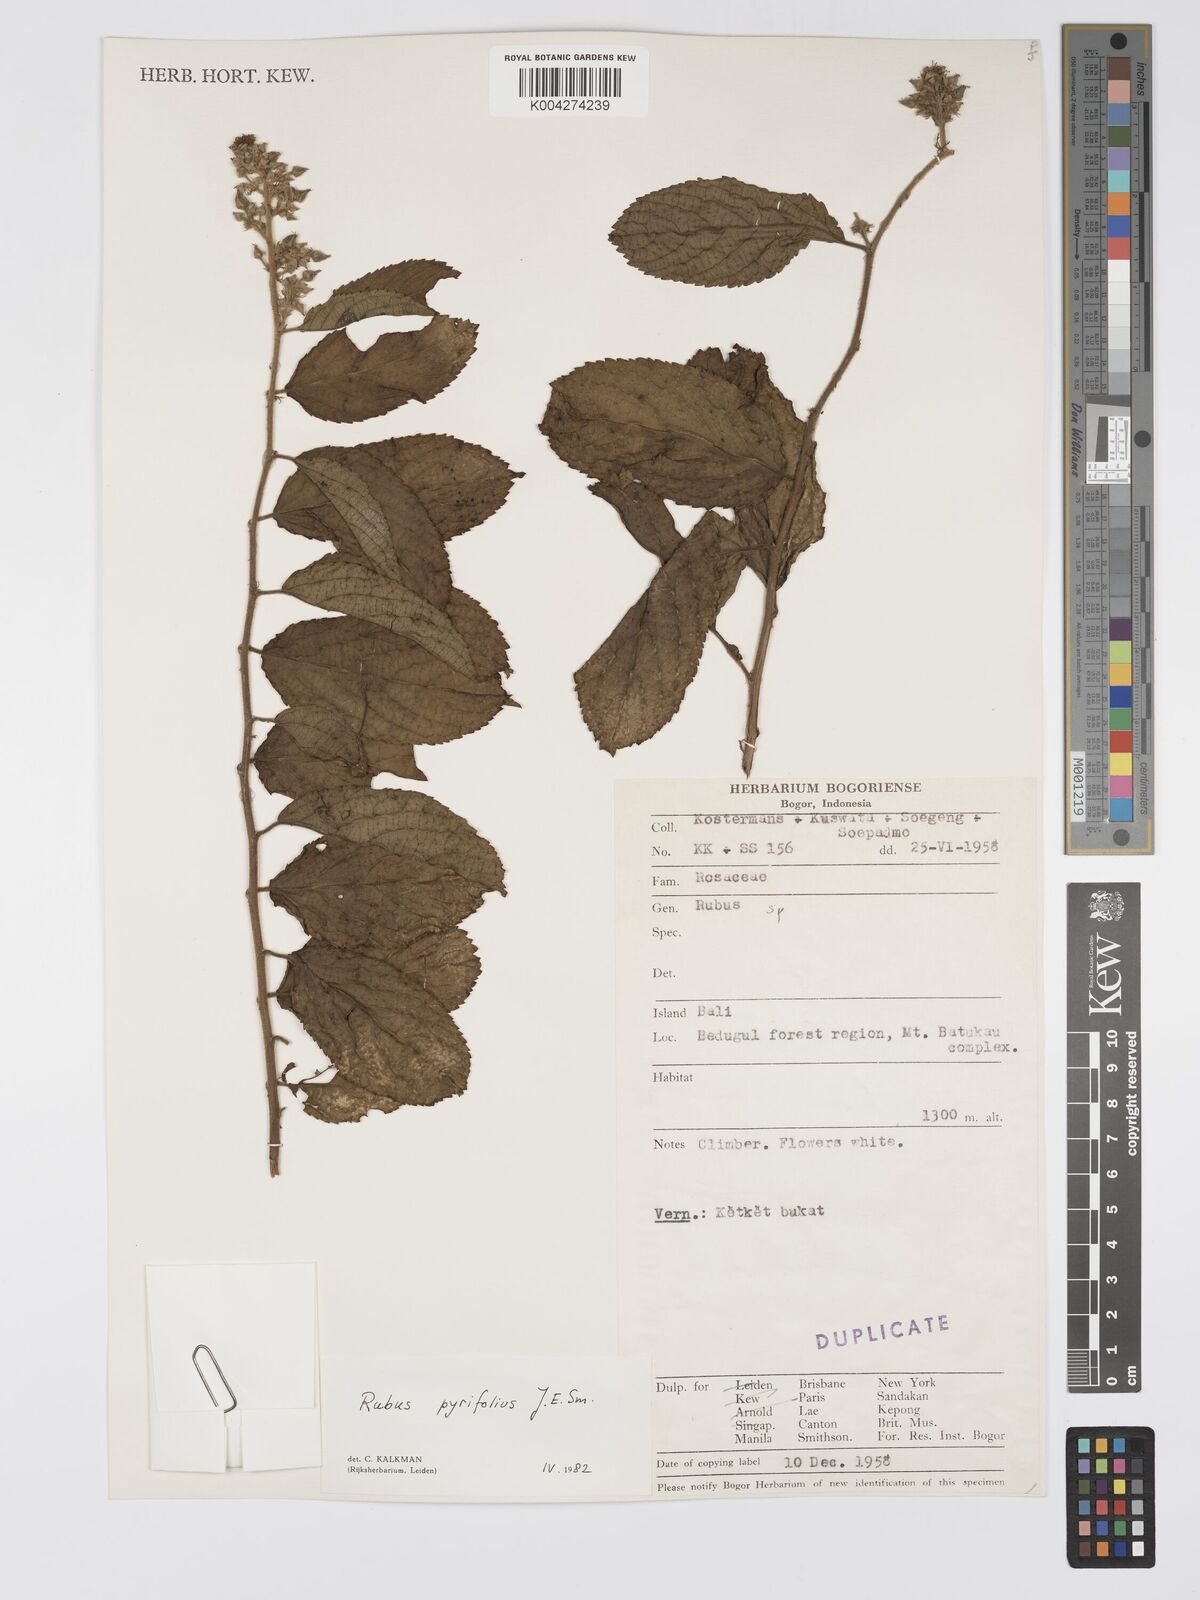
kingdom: Plantae
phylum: Tracheophyta
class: Magnoliopsida
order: Rosales
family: Rosaceae
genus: Rubus
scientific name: Rubus pirifolius
